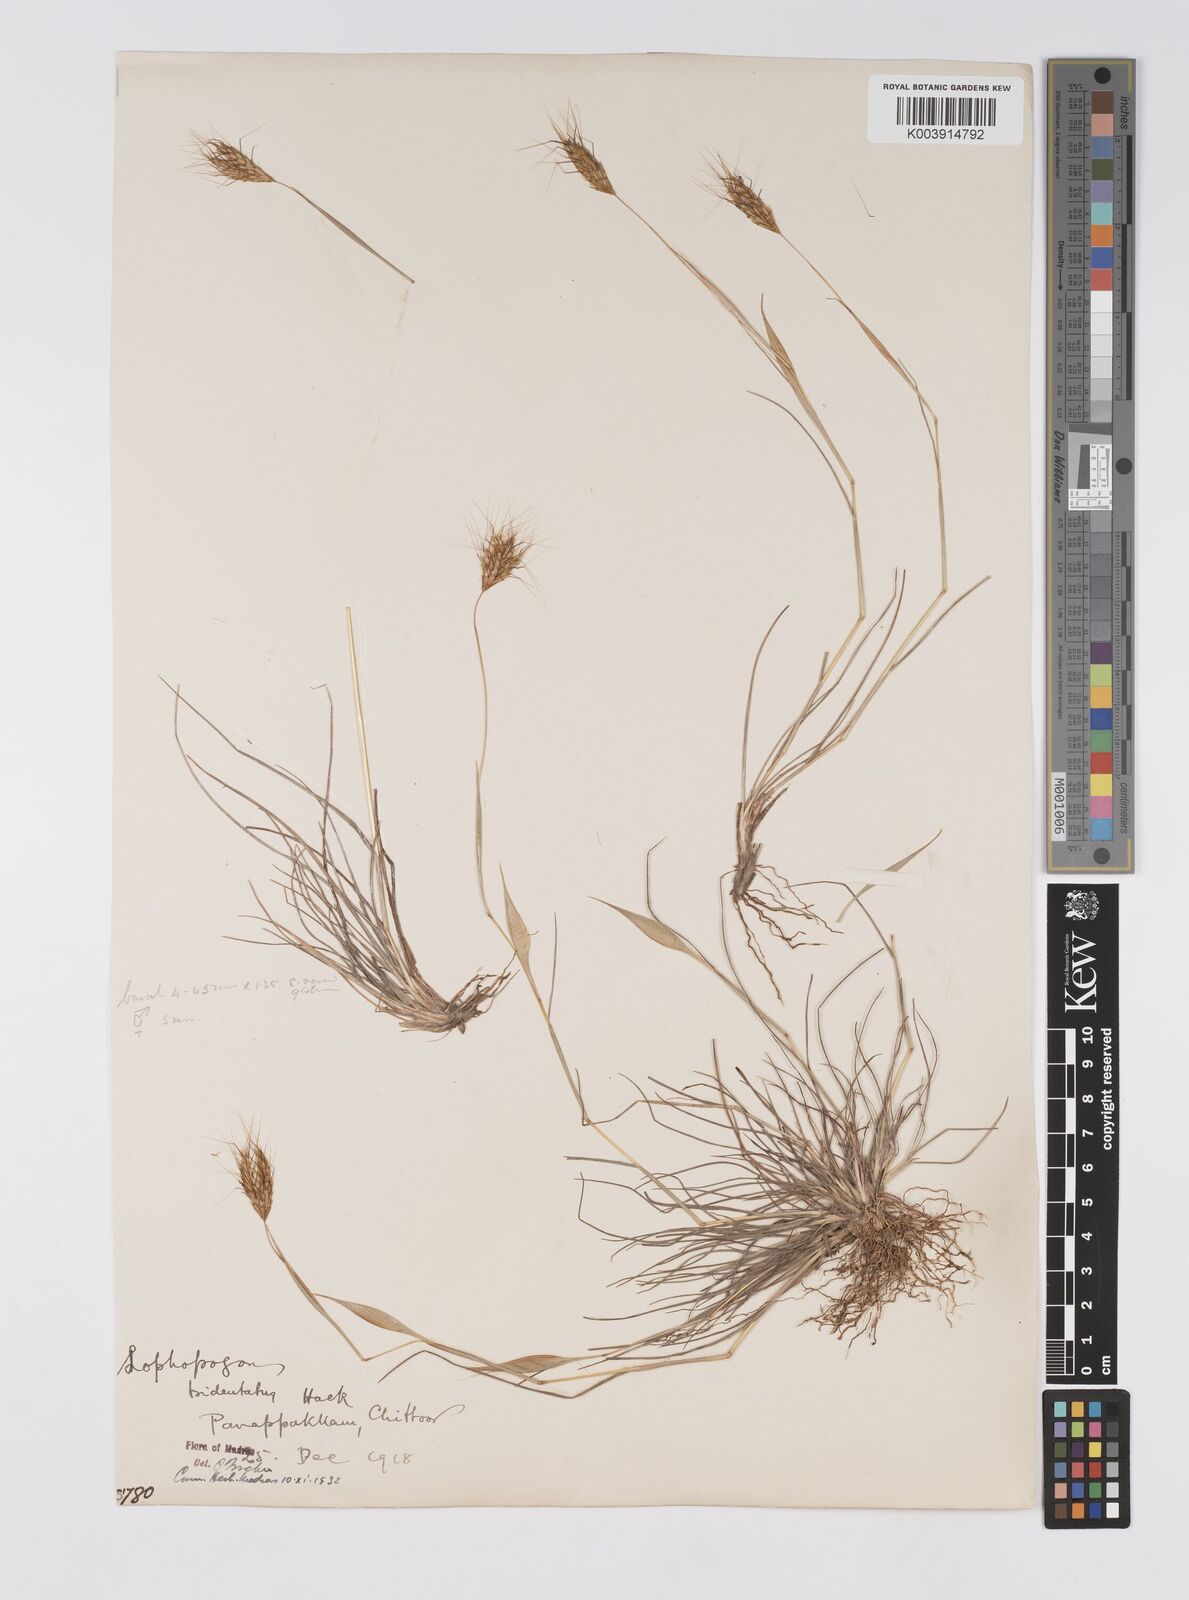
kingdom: Plantae
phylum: Tracheophyta
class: Liliopsida
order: Poales
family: Poaceae
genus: Lophopogon
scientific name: Lophopogon tridentatus
